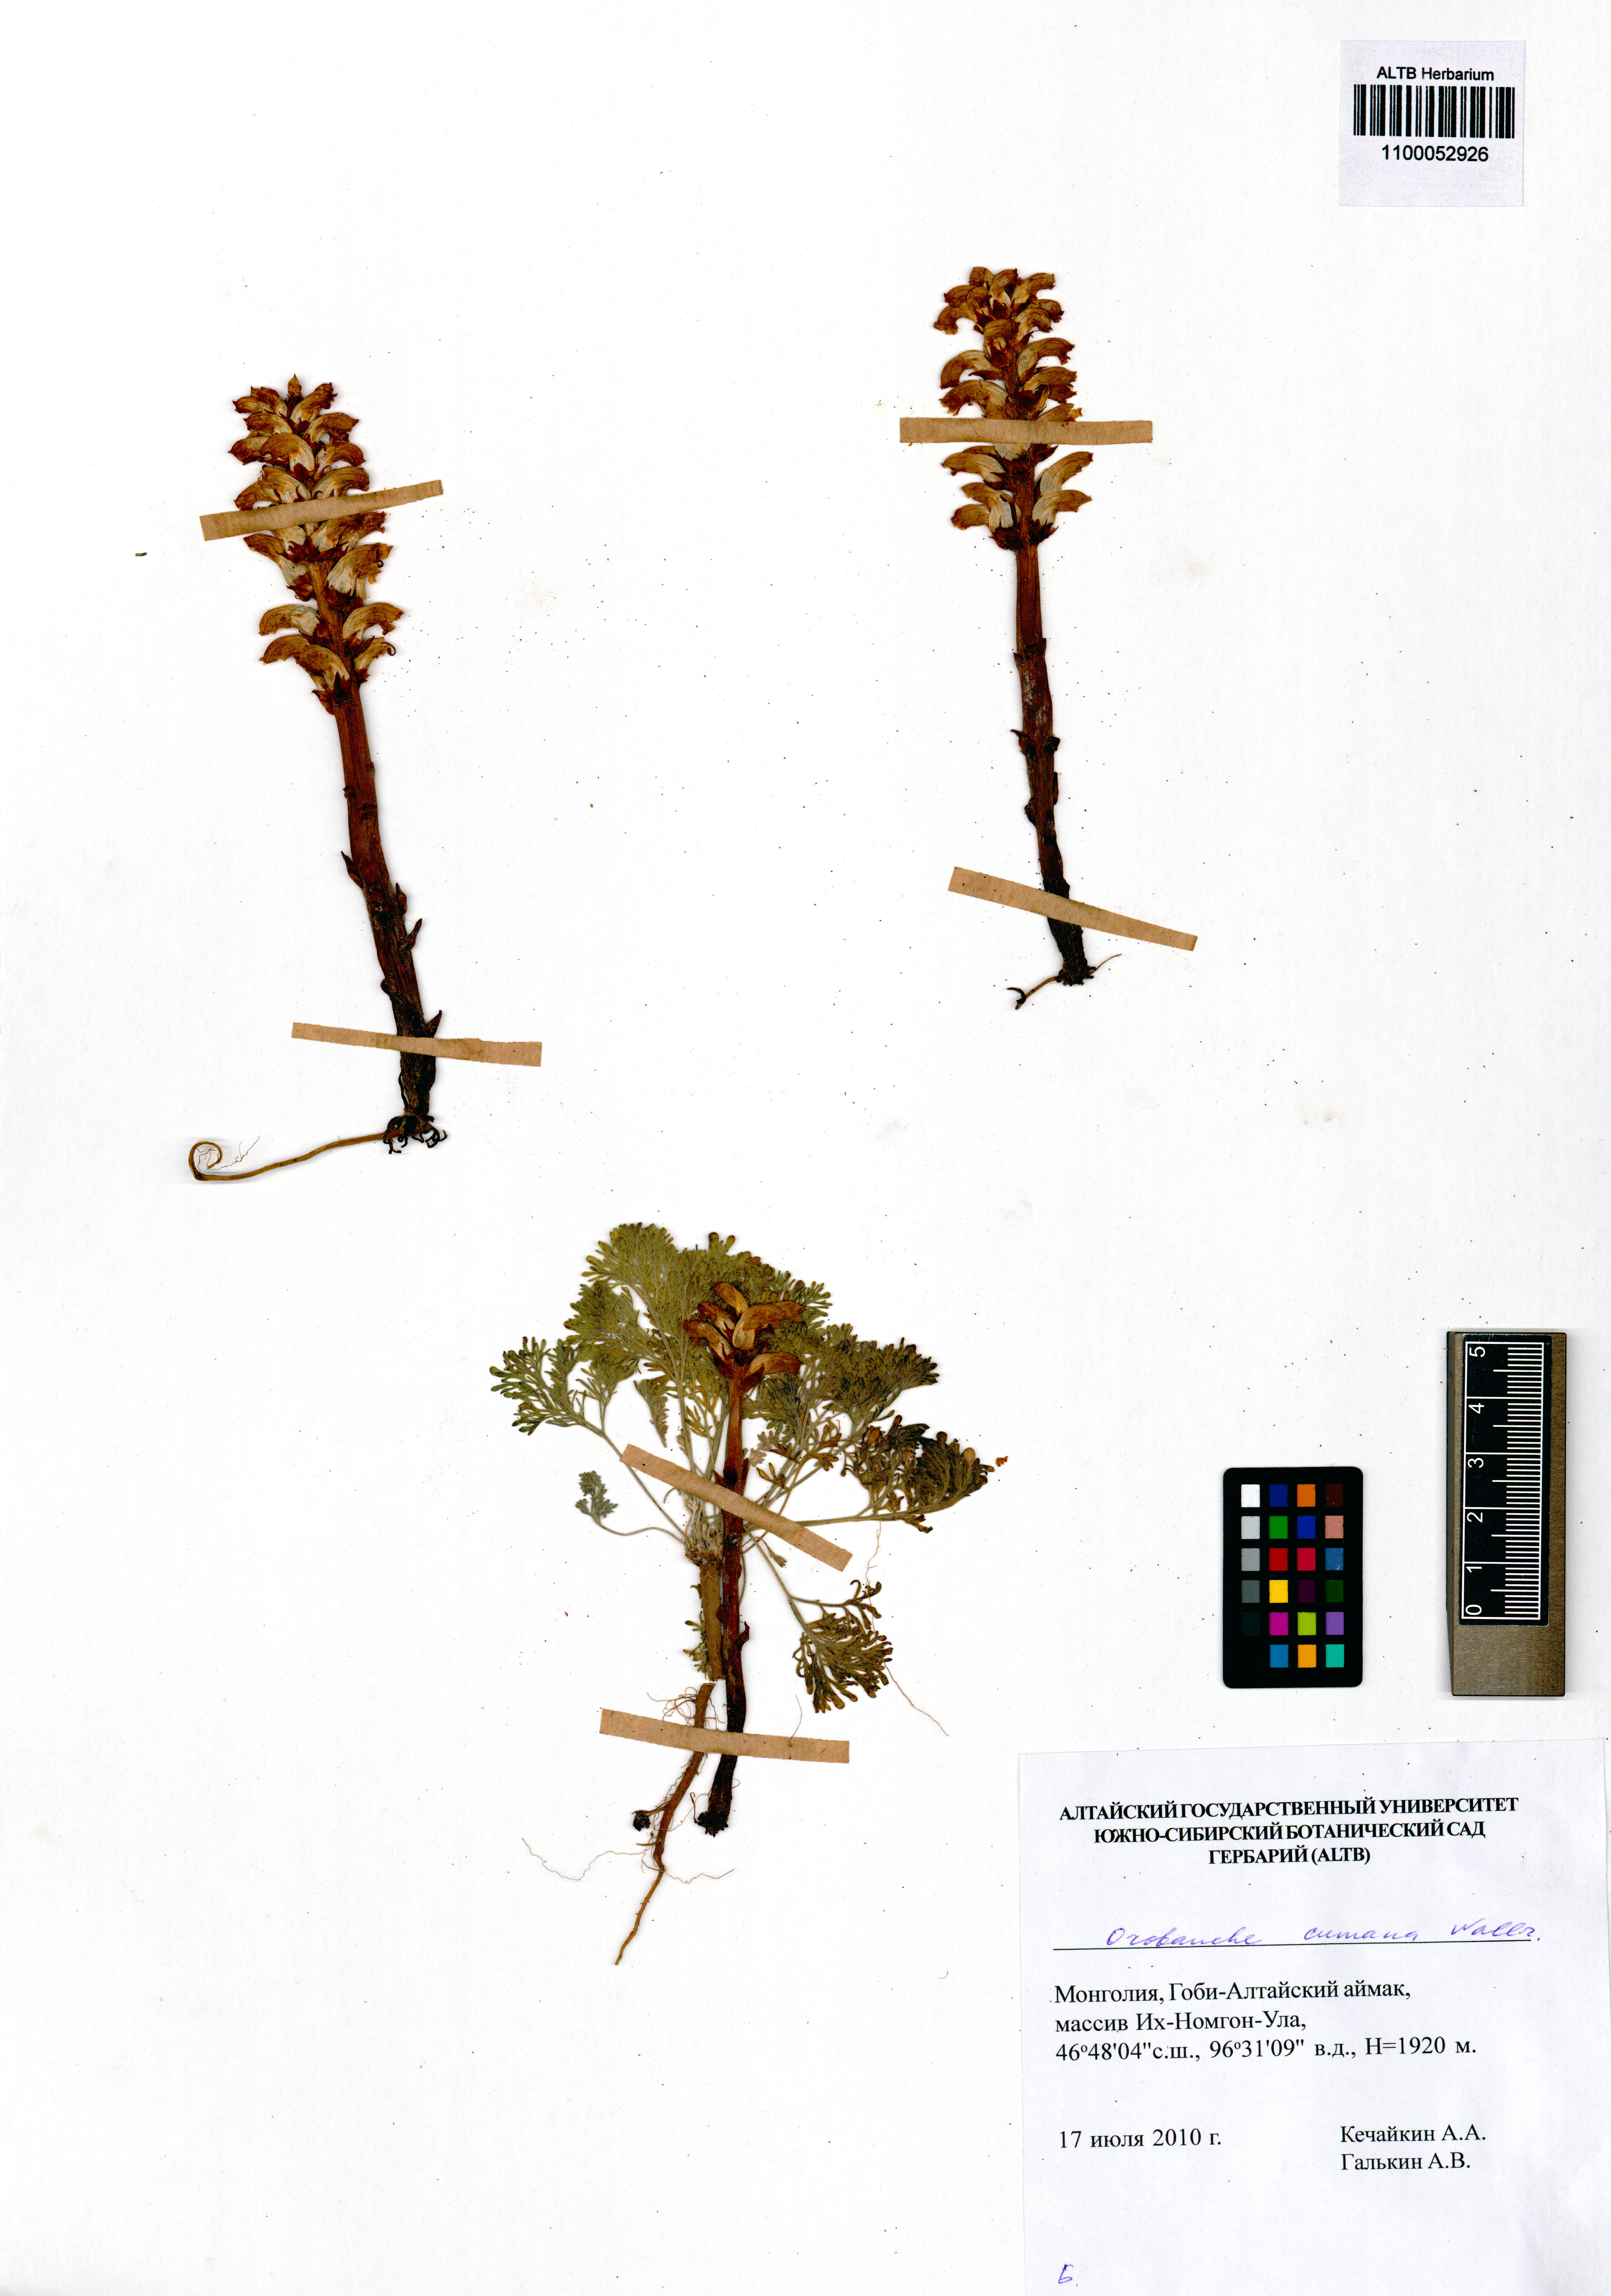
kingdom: Plantae
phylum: Tracheophyta
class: Magnoliopsida
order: Lamiales
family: Orobanchaceae
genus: Orobanche
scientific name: Orobanche cumana
